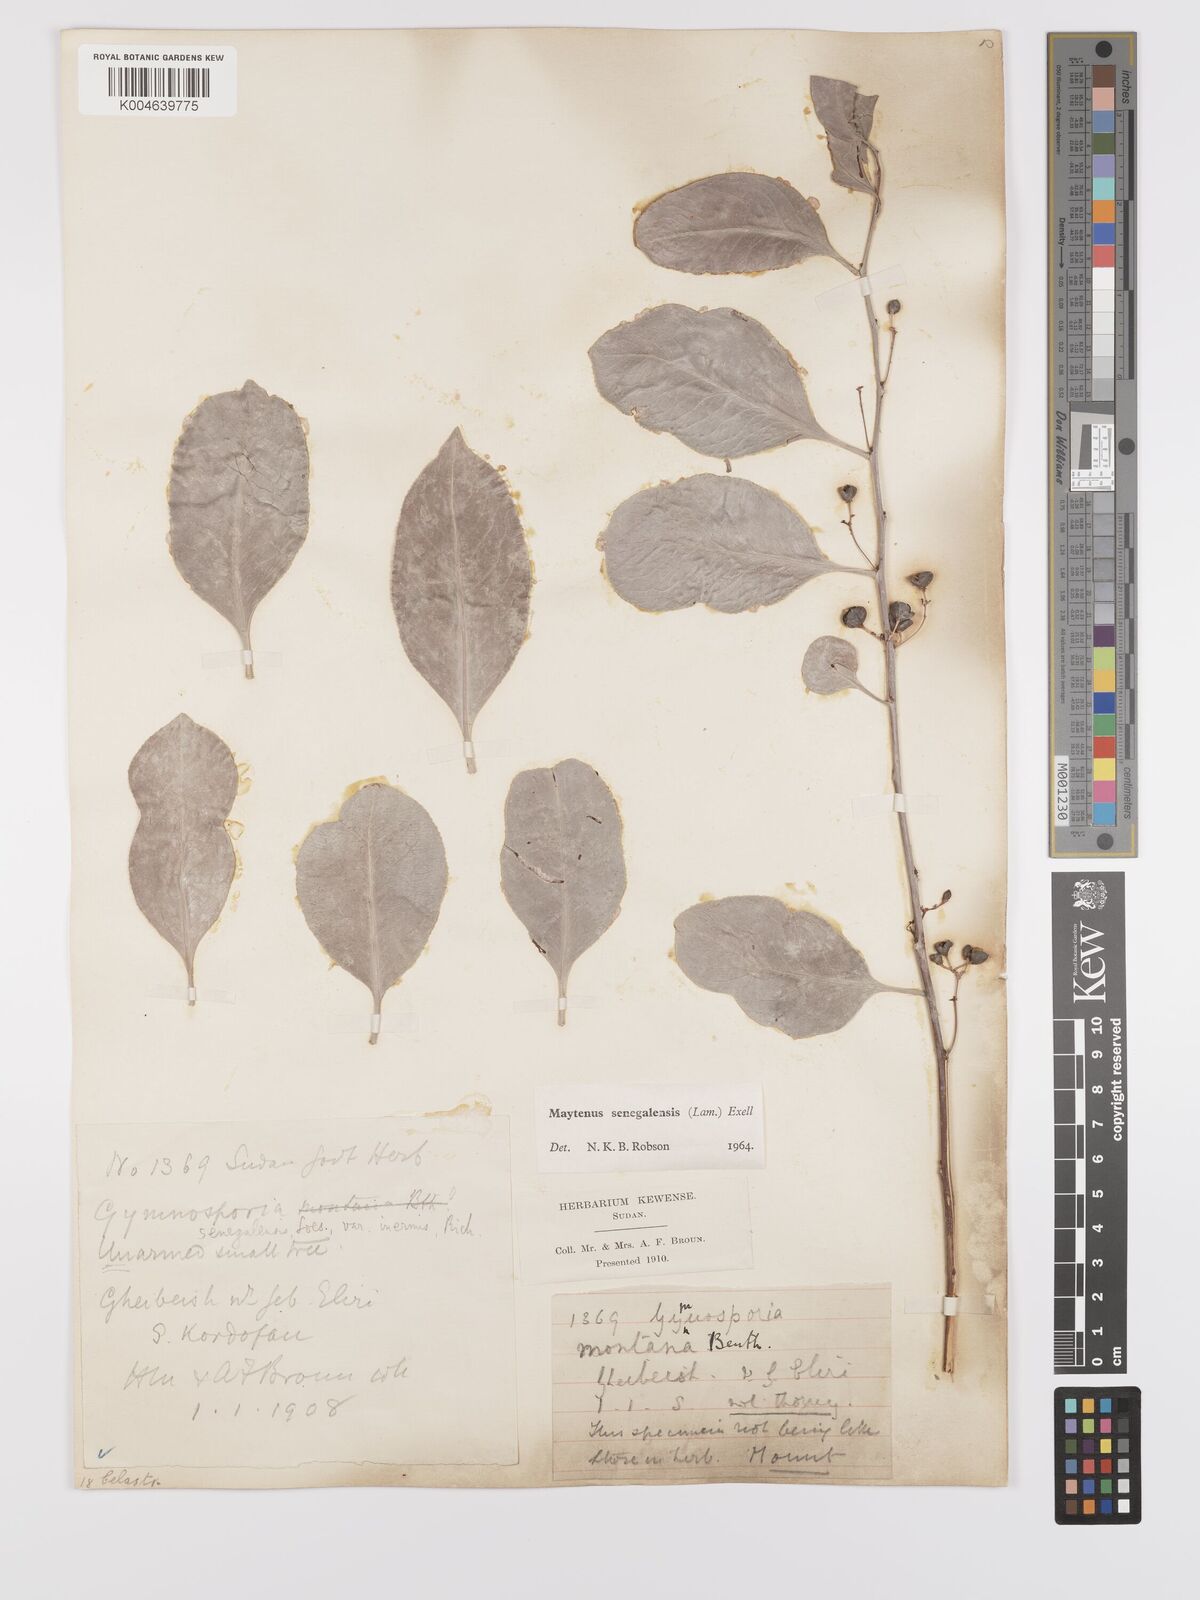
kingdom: Plantae
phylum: Tracheophyta
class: Magnoliopsida
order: Celastrales
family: Celastraceae
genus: Gymnosporia
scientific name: Gymnosporia senegalensis
